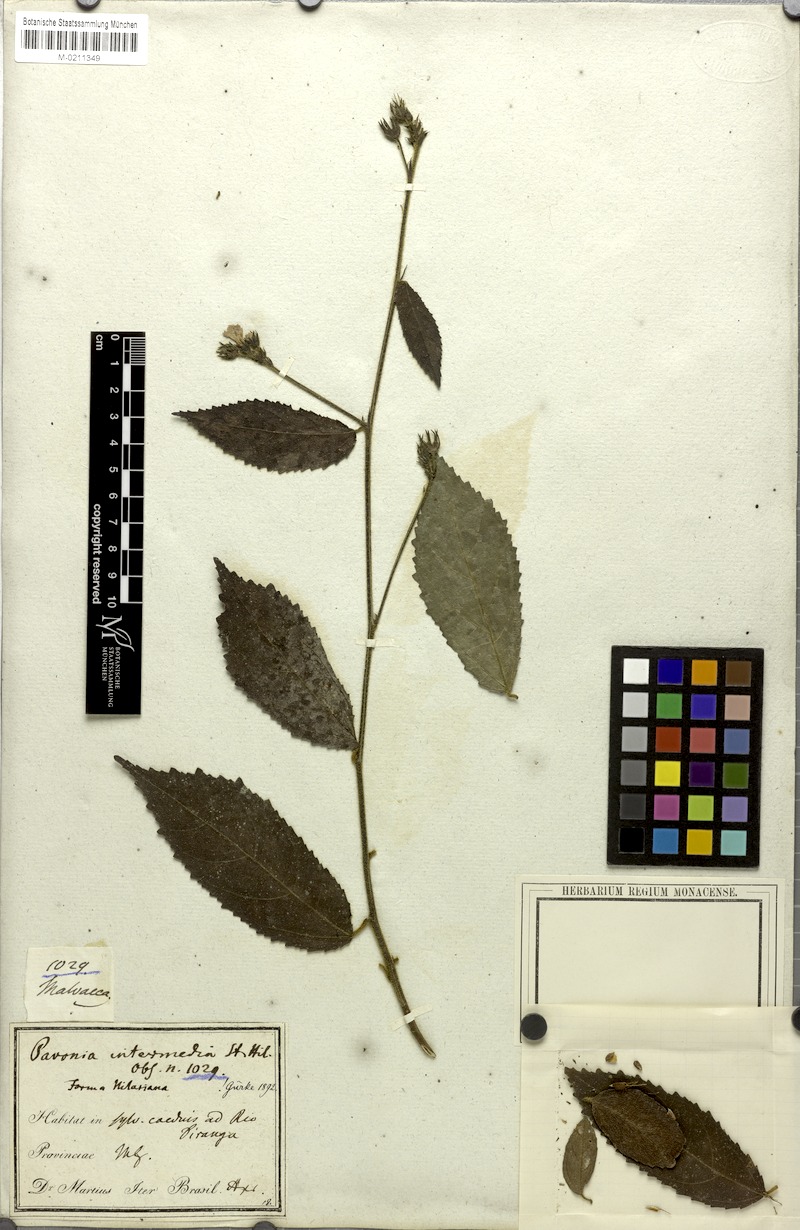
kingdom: Plantae
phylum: Tracheophyta
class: Magnoliopsida
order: Malvales
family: Malvaceae
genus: Pavonia
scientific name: Pavonia intermedia
